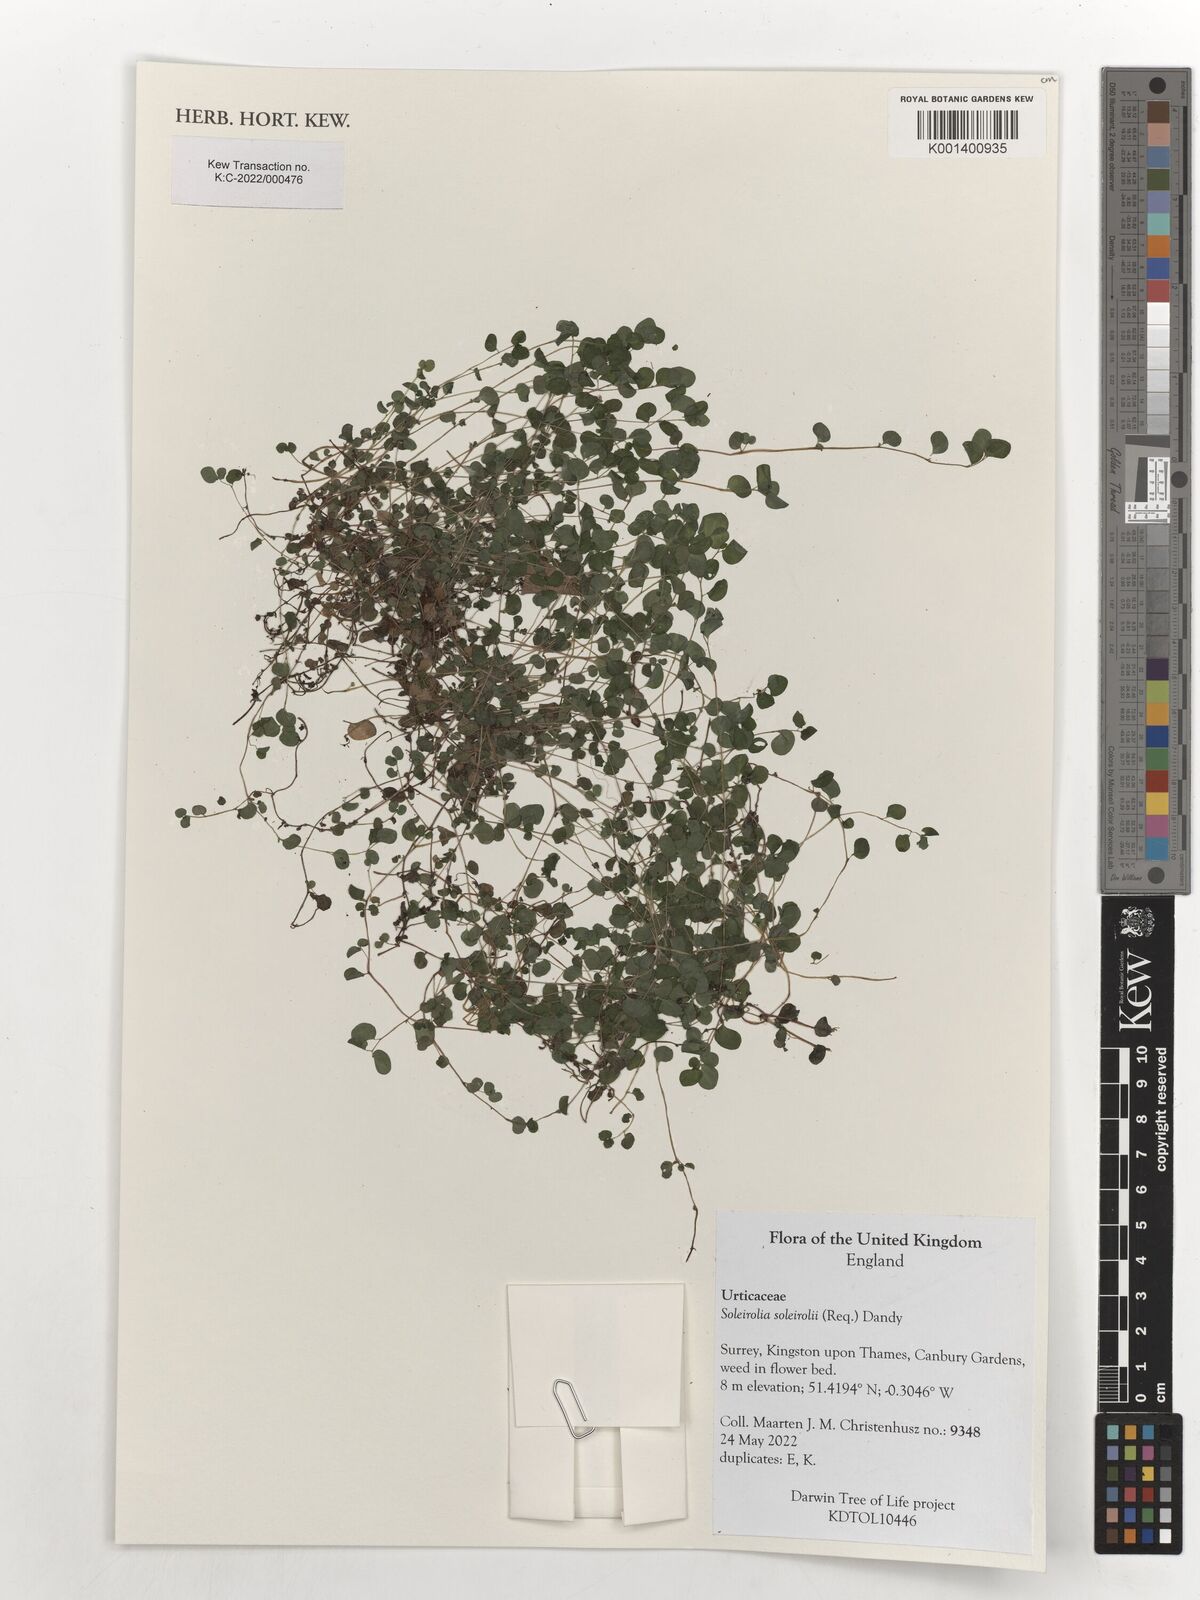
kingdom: Plantae
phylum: Tracheophyta
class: Magnoliopsida
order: Rosales
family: Urticaceae
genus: Soleirolia
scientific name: Soleirolia soleirolii
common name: Mind-your-own-business
